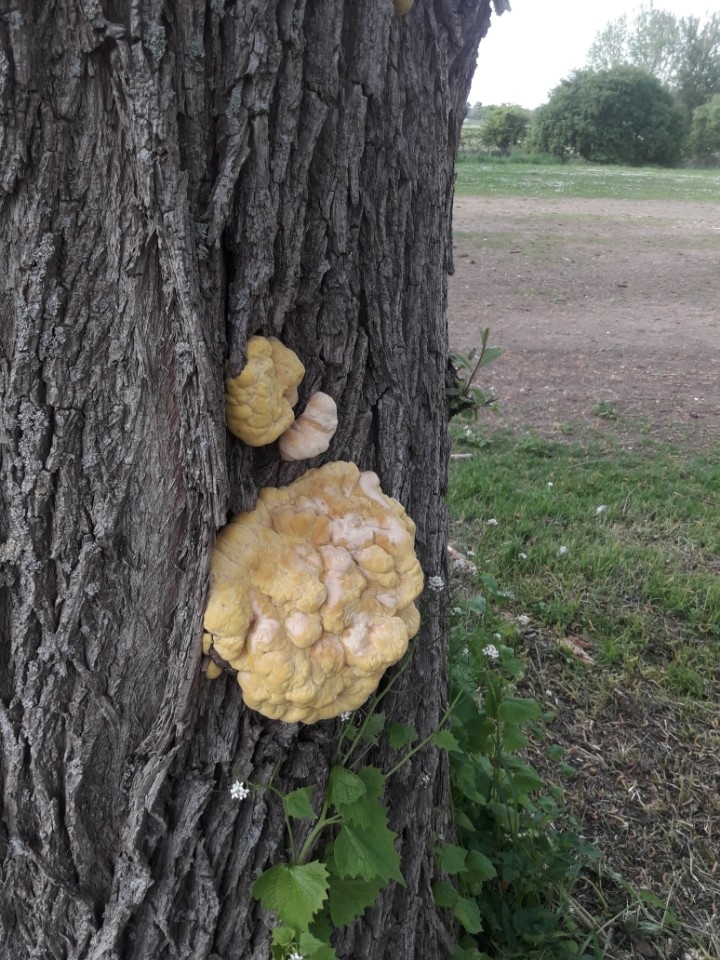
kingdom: Fungi
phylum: Basidiomycota
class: Agaricomycetes
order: Polyporales
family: Laetiporaceae
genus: Laetiporus
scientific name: Laetiporus sulphureus
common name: svovlporesvamp
